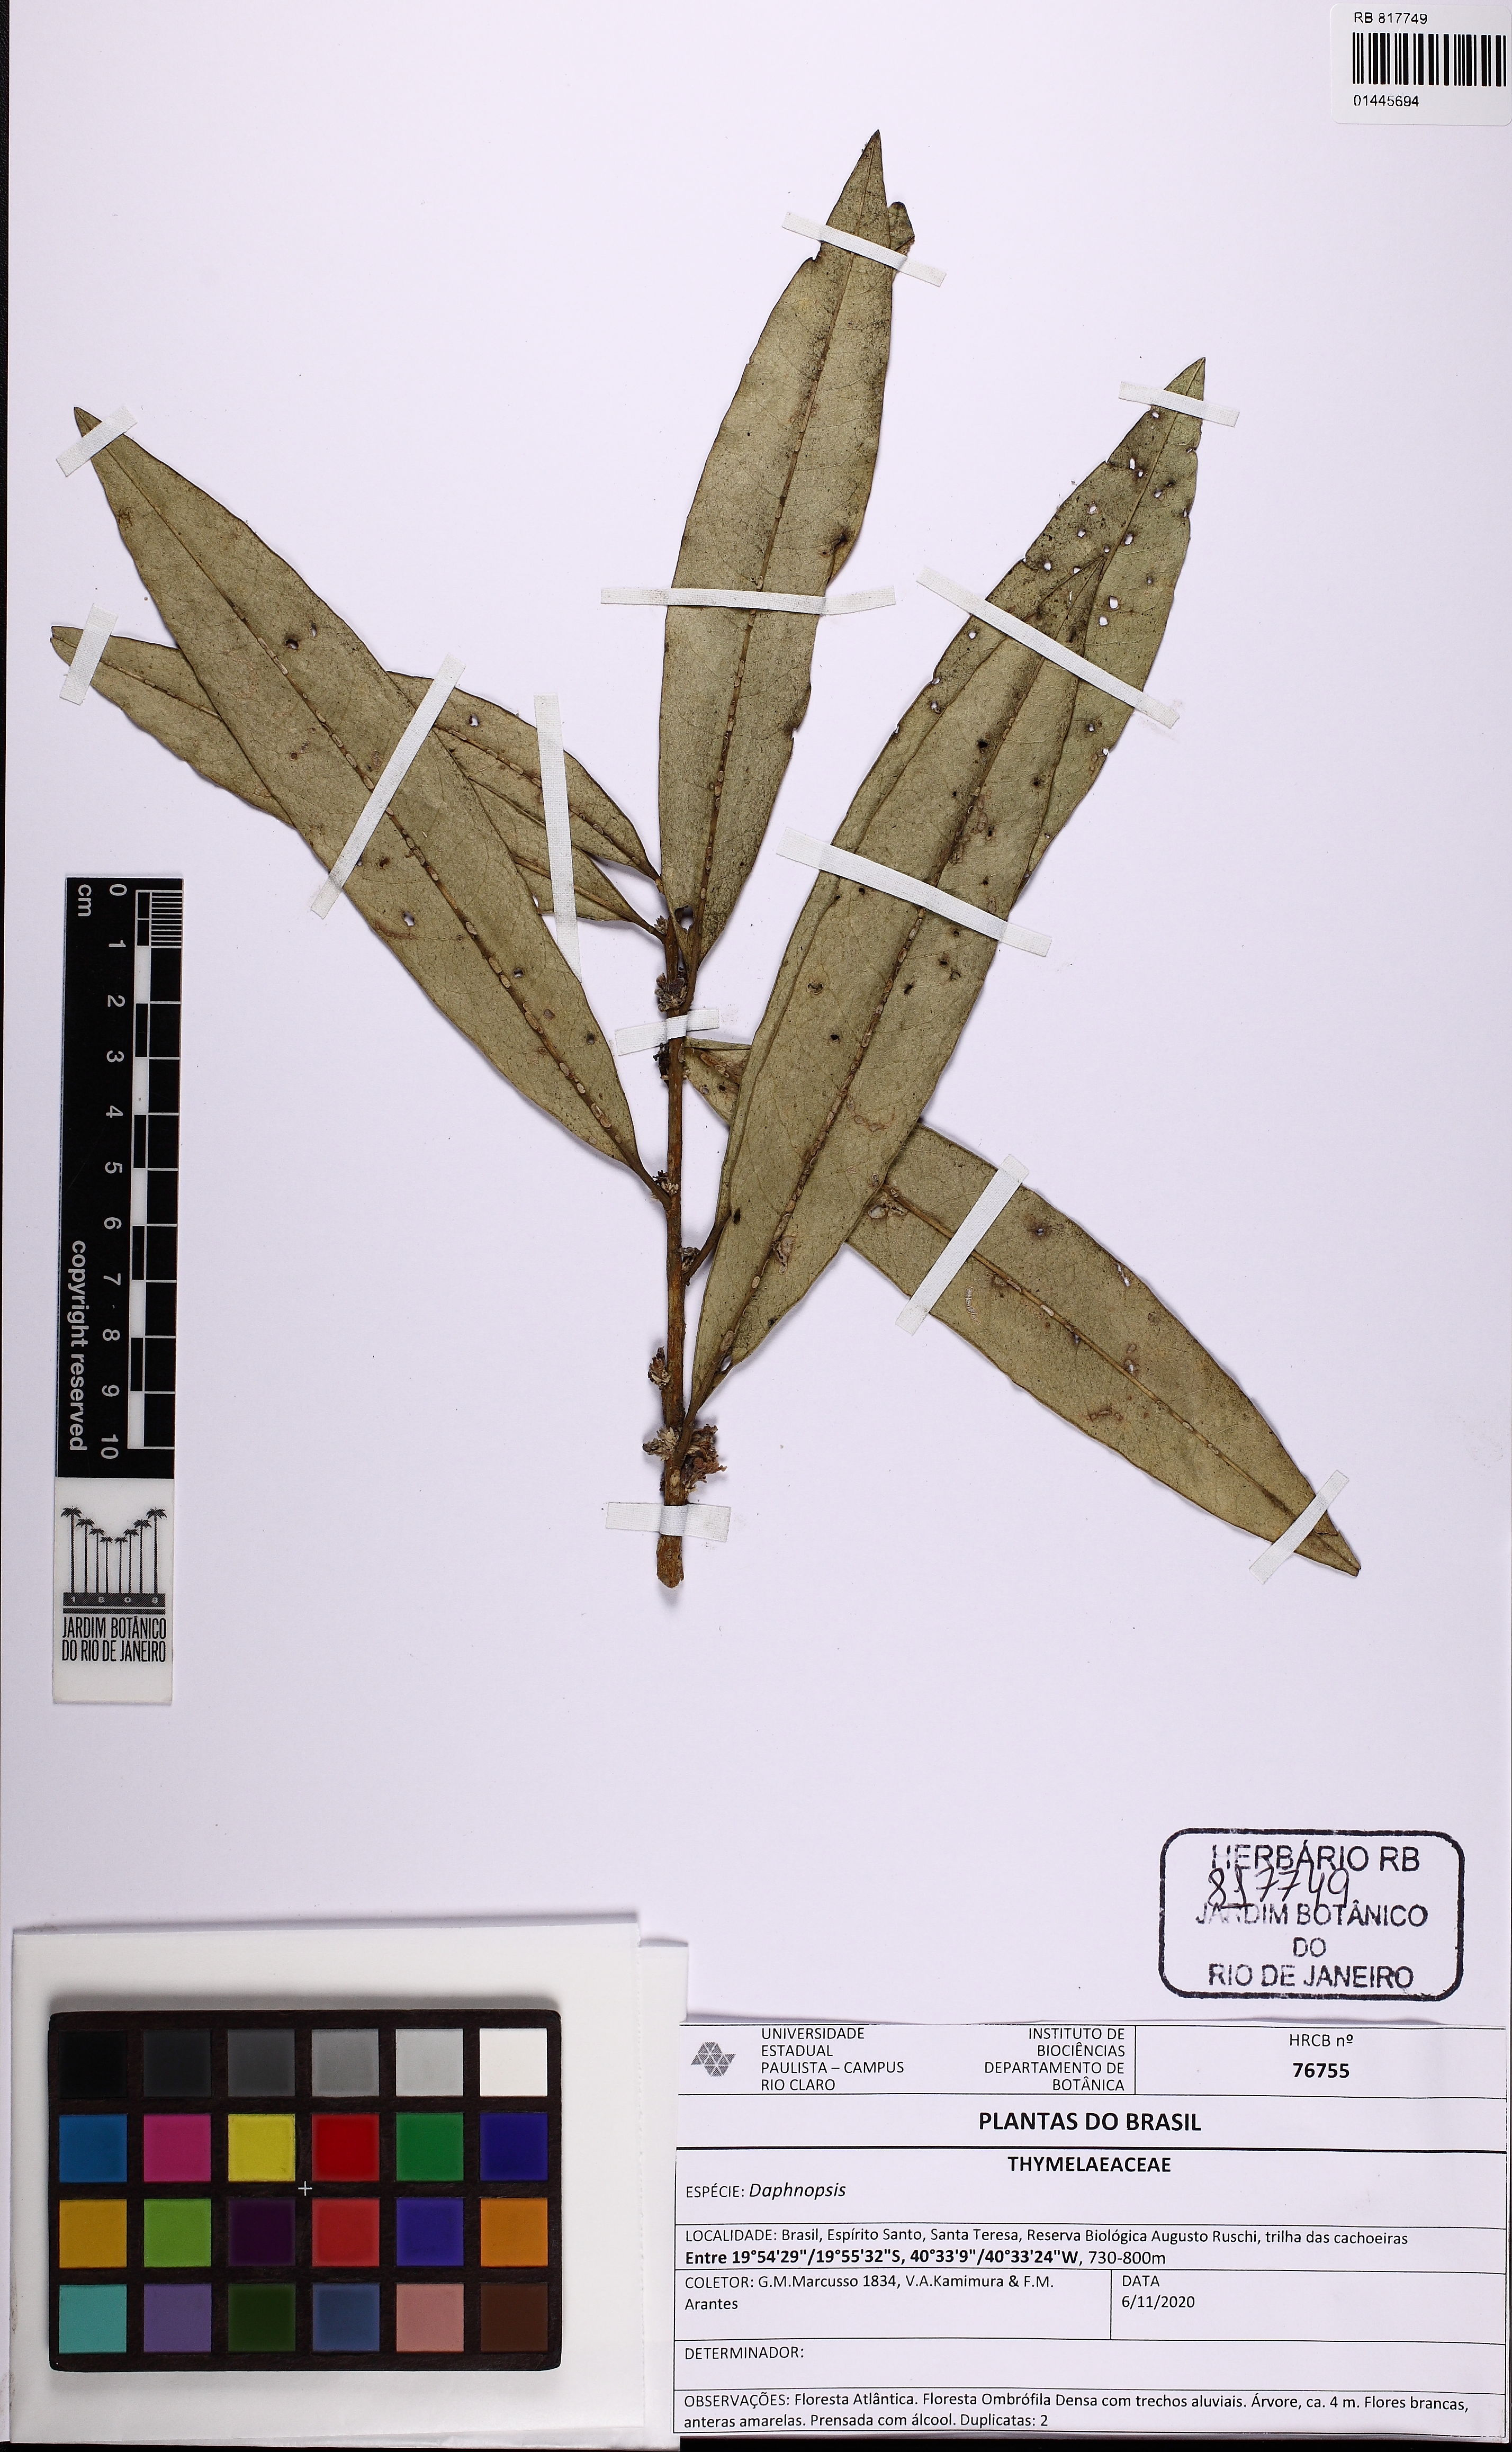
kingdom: Plantae
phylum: Tracheophyta
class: Magnoliopsida
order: Malvales
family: Thymelaeaceae
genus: Daphnopsis
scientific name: Daphnopsis fasciculata
